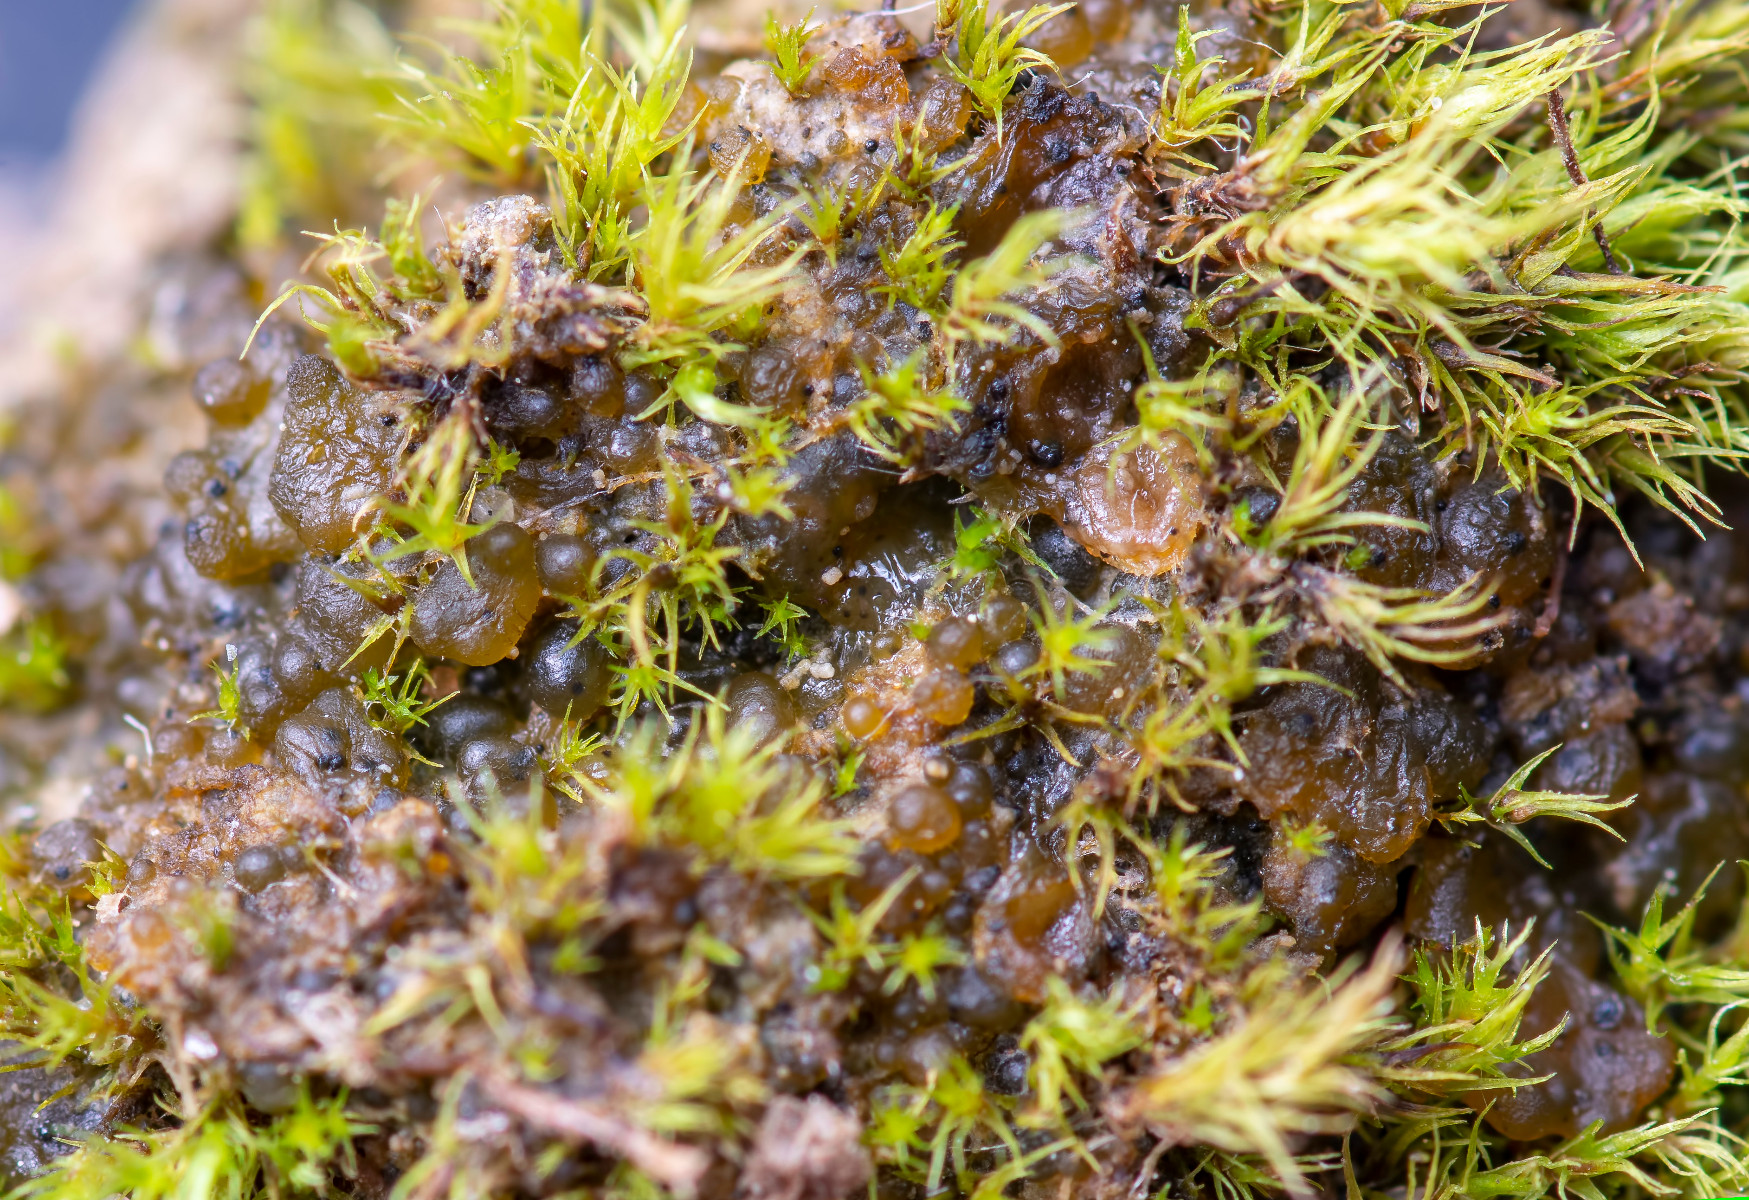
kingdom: Fungi
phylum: Ascomycota
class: Dothideomycetes
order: Collemopsidiales
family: Xanthopyreniaceae
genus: Didymellopsis
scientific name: Didymellopsis pulposi
